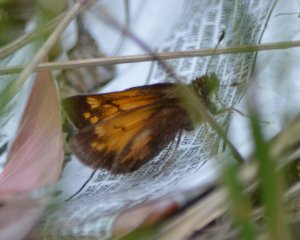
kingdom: Animalia
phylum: Arthropoda
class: Insecta
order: Lepidoptera
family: Hesperiidae
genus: Lon
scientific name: Lon hobomok
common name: Hobomok Skipper
